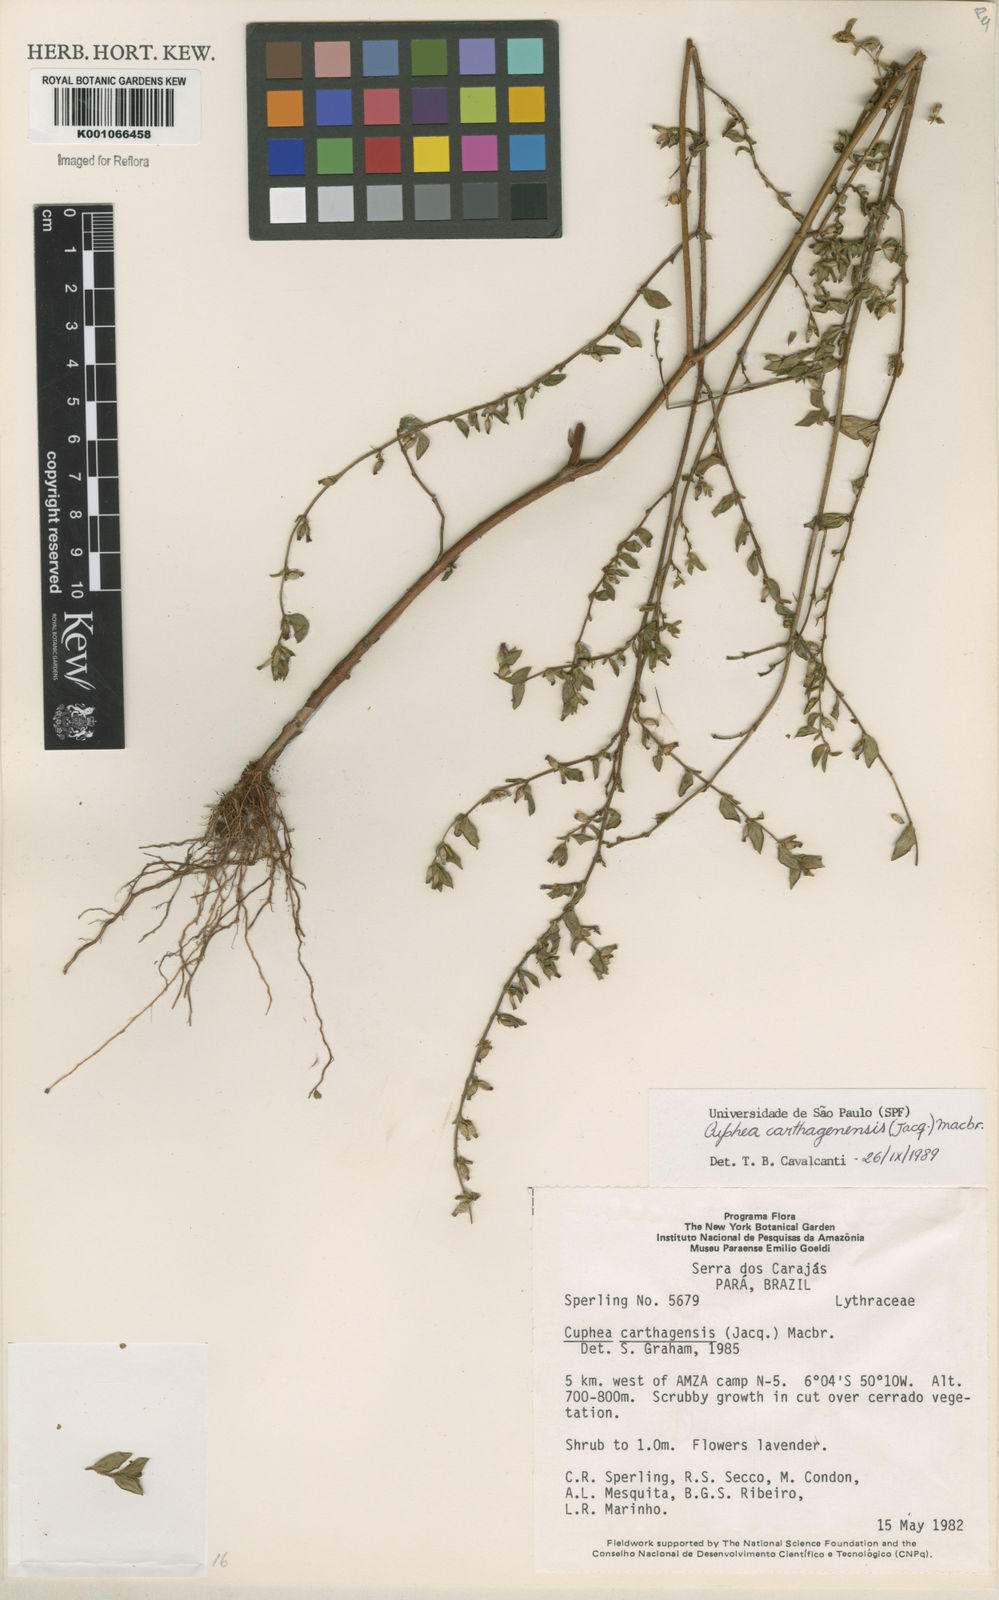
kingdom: Plantae
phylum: Tracheophyta
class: Magnoliopsida
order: Myrtales
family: Lythraceae
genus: Cuphea
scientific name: Cuphea carthagenensis
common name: Colombian waxweed
